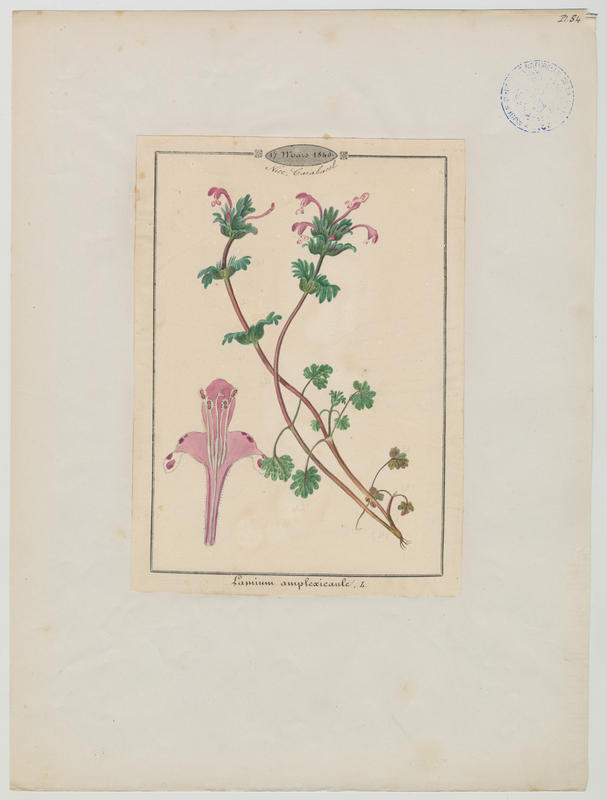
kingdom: Plantae
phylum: Tracheophyta
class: Magnoliopsida
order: Lamiales
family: Lamiaceae
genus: Lamium
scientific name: Lamium amplexicaule
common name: Henbit dead-nettle
